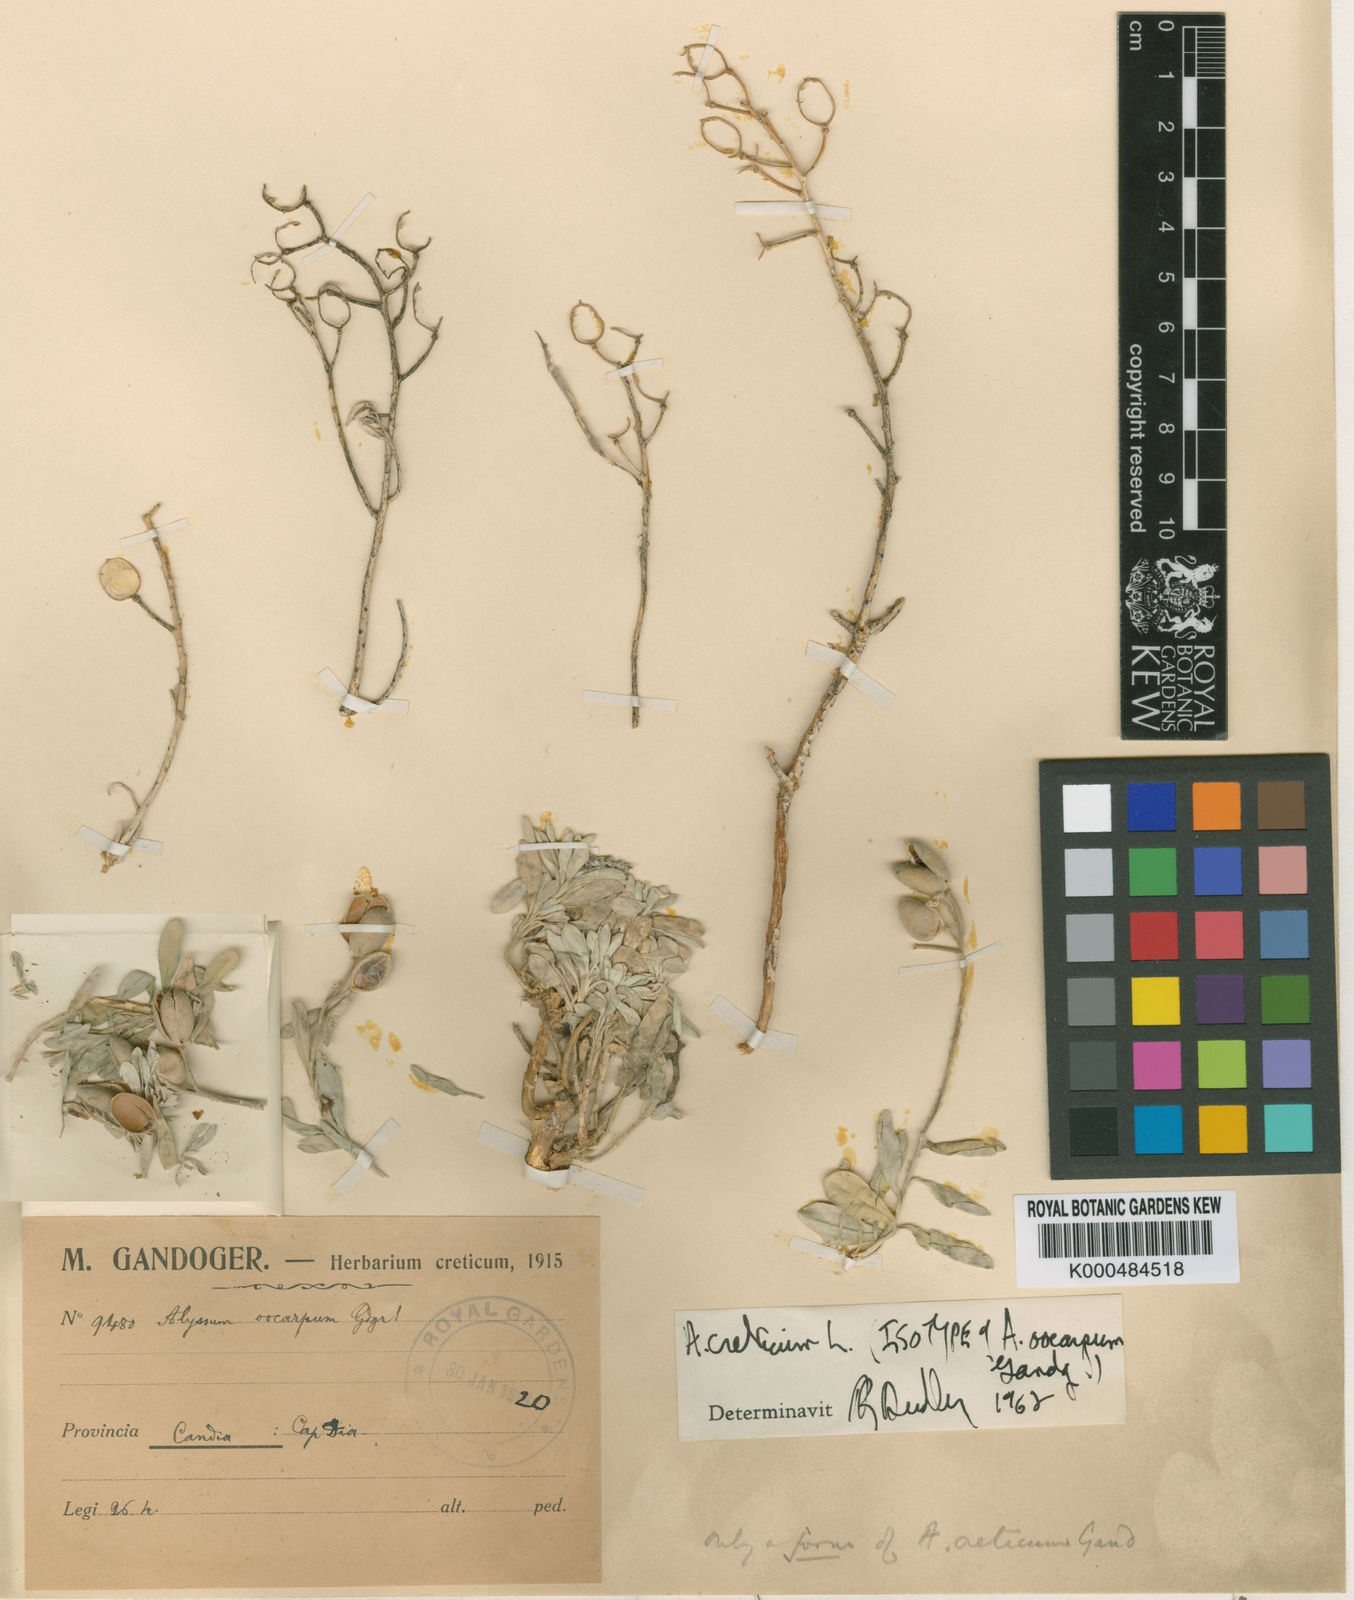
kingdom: Plantae
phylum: Tracheophyta
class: Magnoliopsida
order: Brassicales
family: Brassicaceae
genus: Lutzia
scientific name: Lutzia cretica
